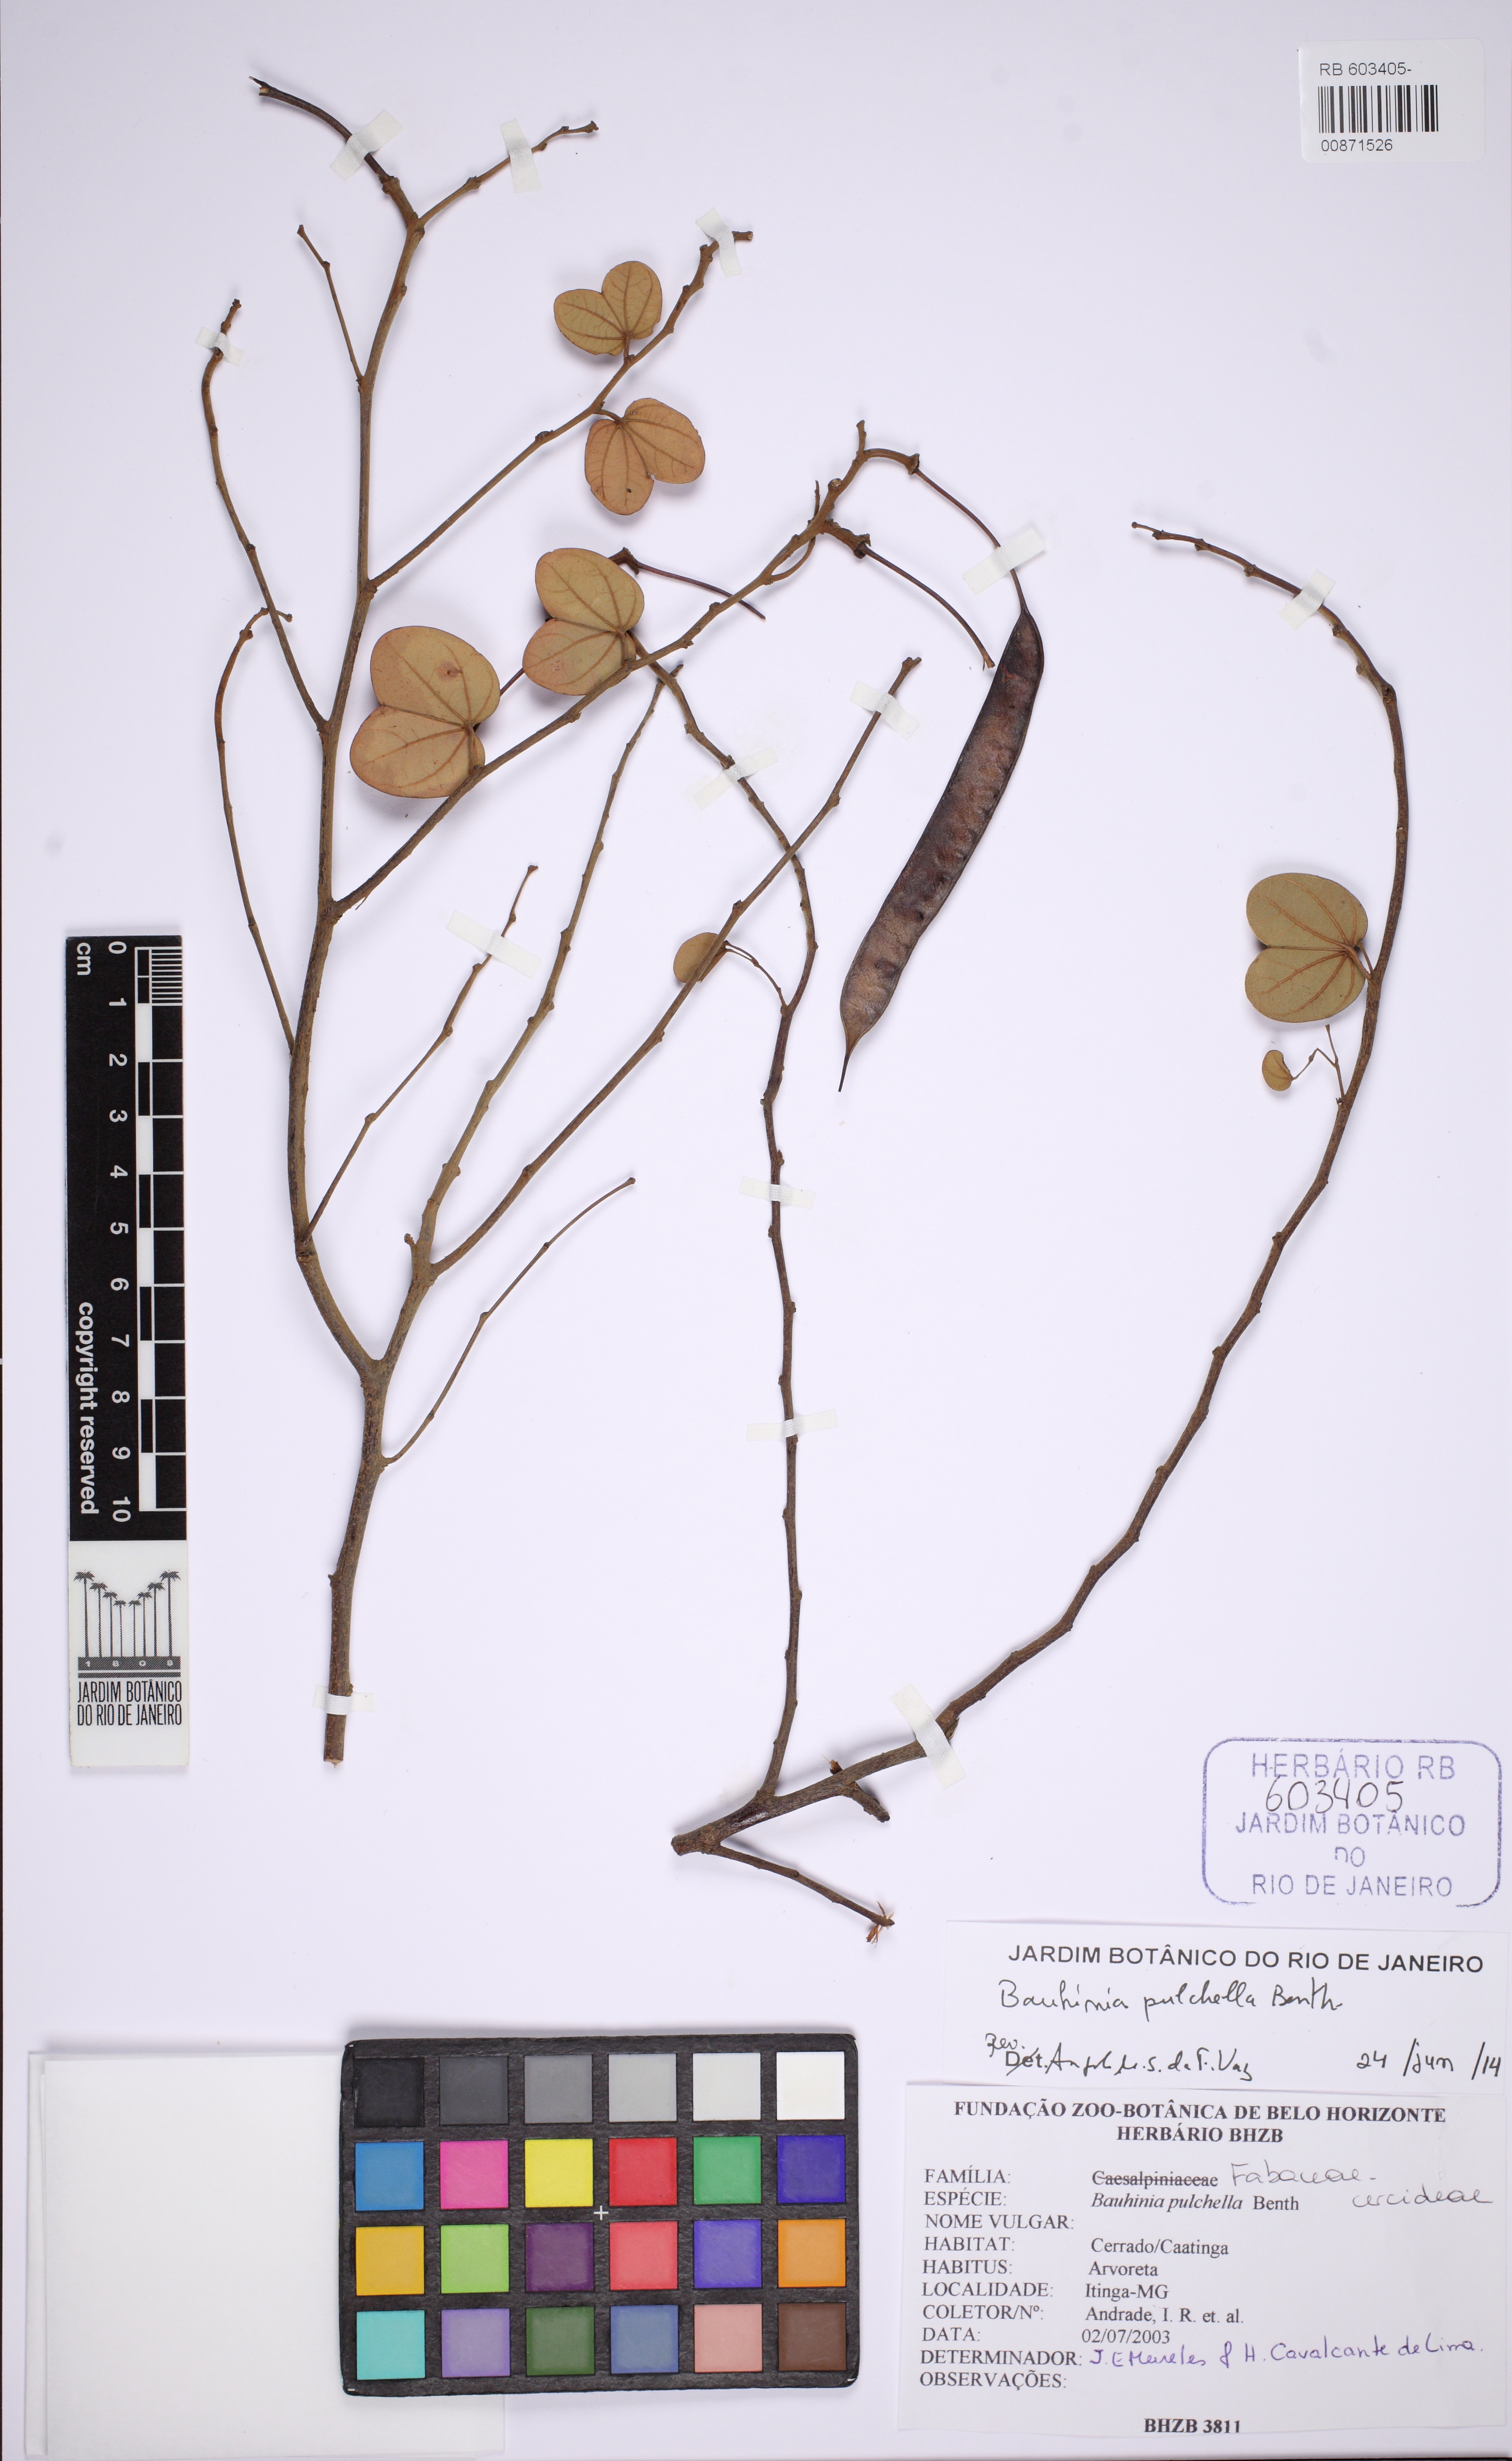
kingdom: Plantae
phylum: Tracheophyta
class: Magnoliopsida
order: Fabales
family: Fabaceae
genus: Bauhinia
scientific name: Bauhinia pulchella
